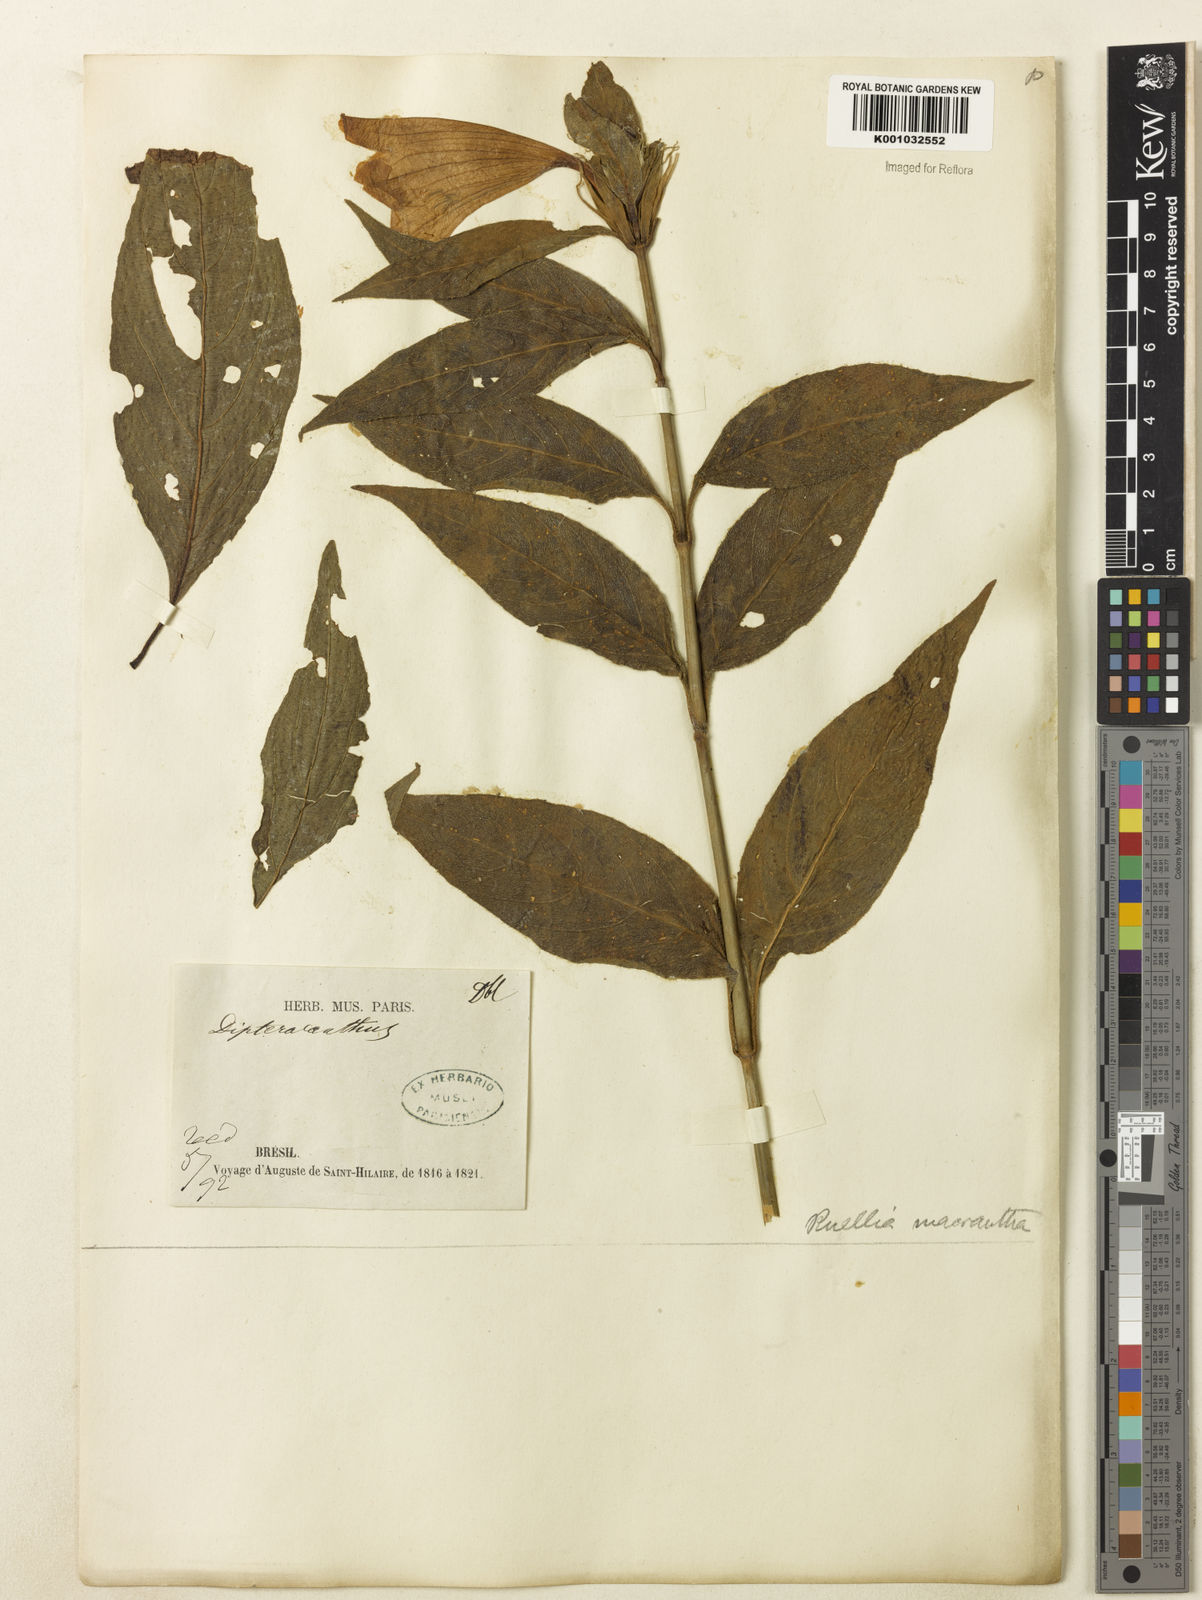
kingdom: Plantae
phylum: Tracheophyta
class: Magnoliopsida
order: Lamiales
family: Acanthaceae
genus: Ruellia
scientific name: Ruellia
